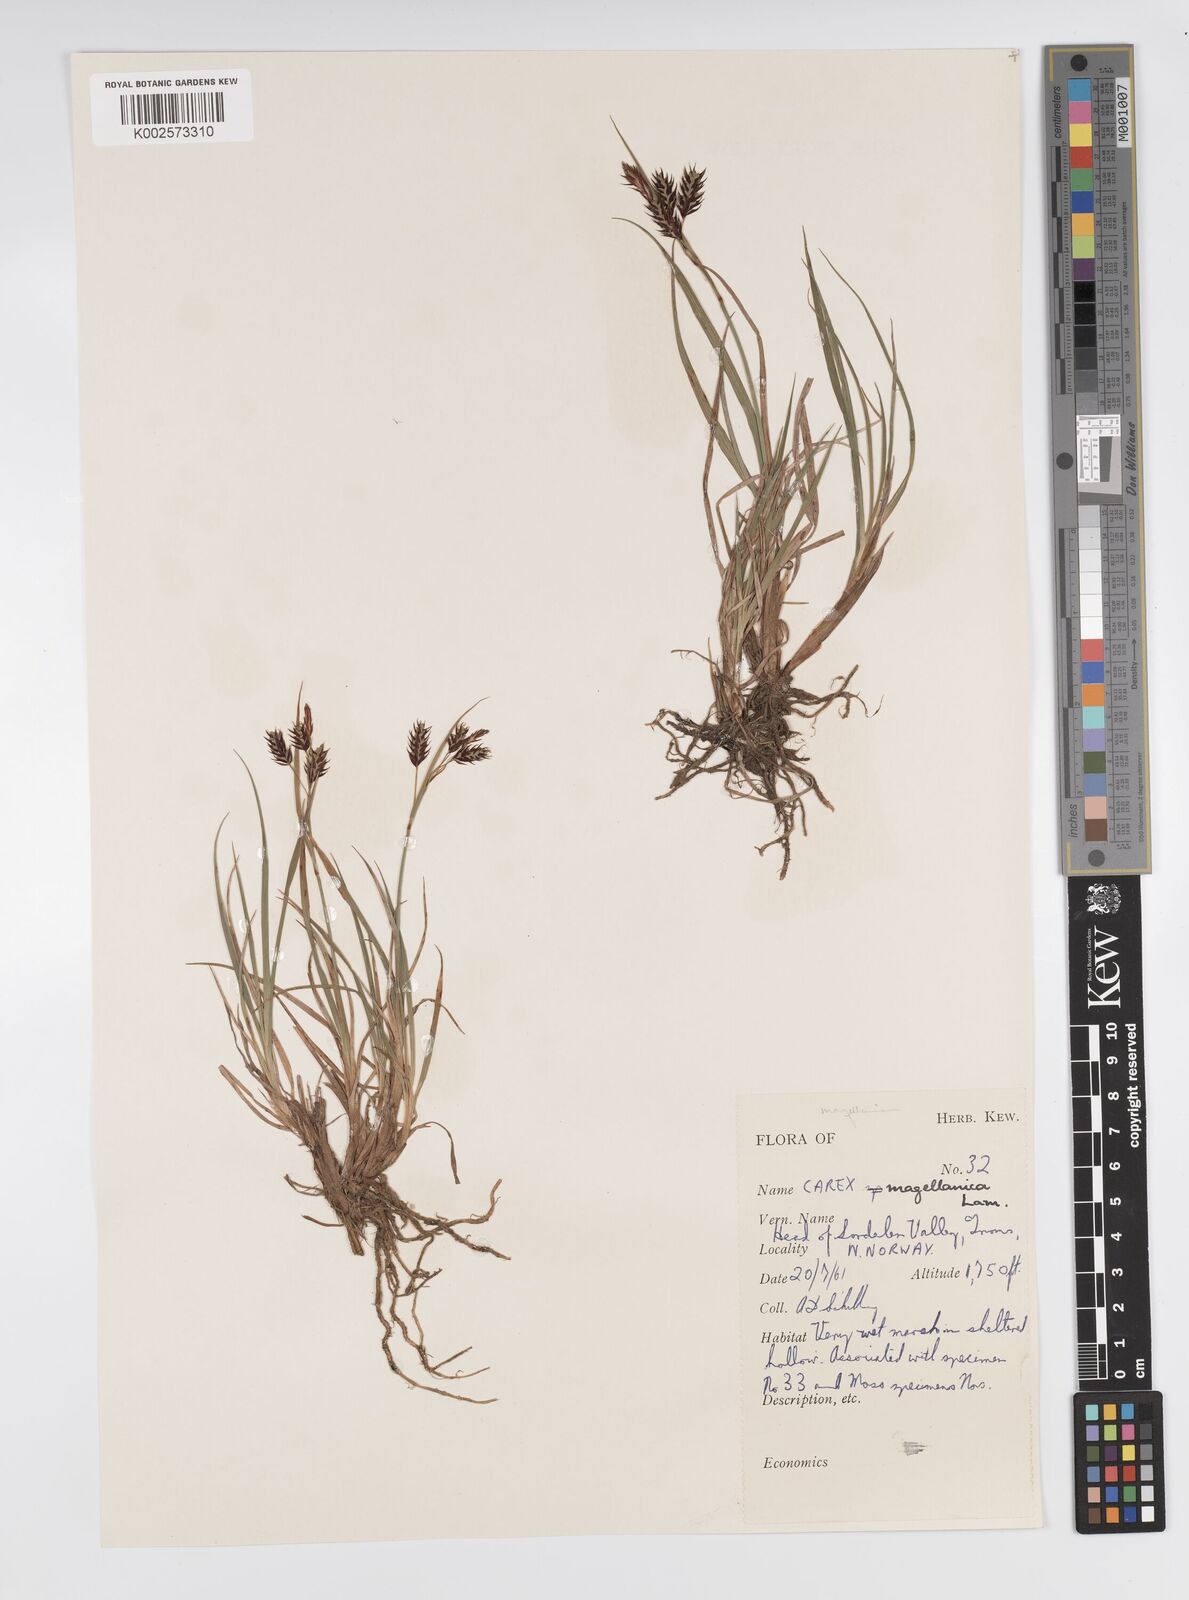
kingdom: Plantae
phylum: Tracheophyta
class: Liliopsida
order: Poales
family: Cyperaceae
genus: Carex
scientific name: Carex magellanica
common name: Bog sedge
